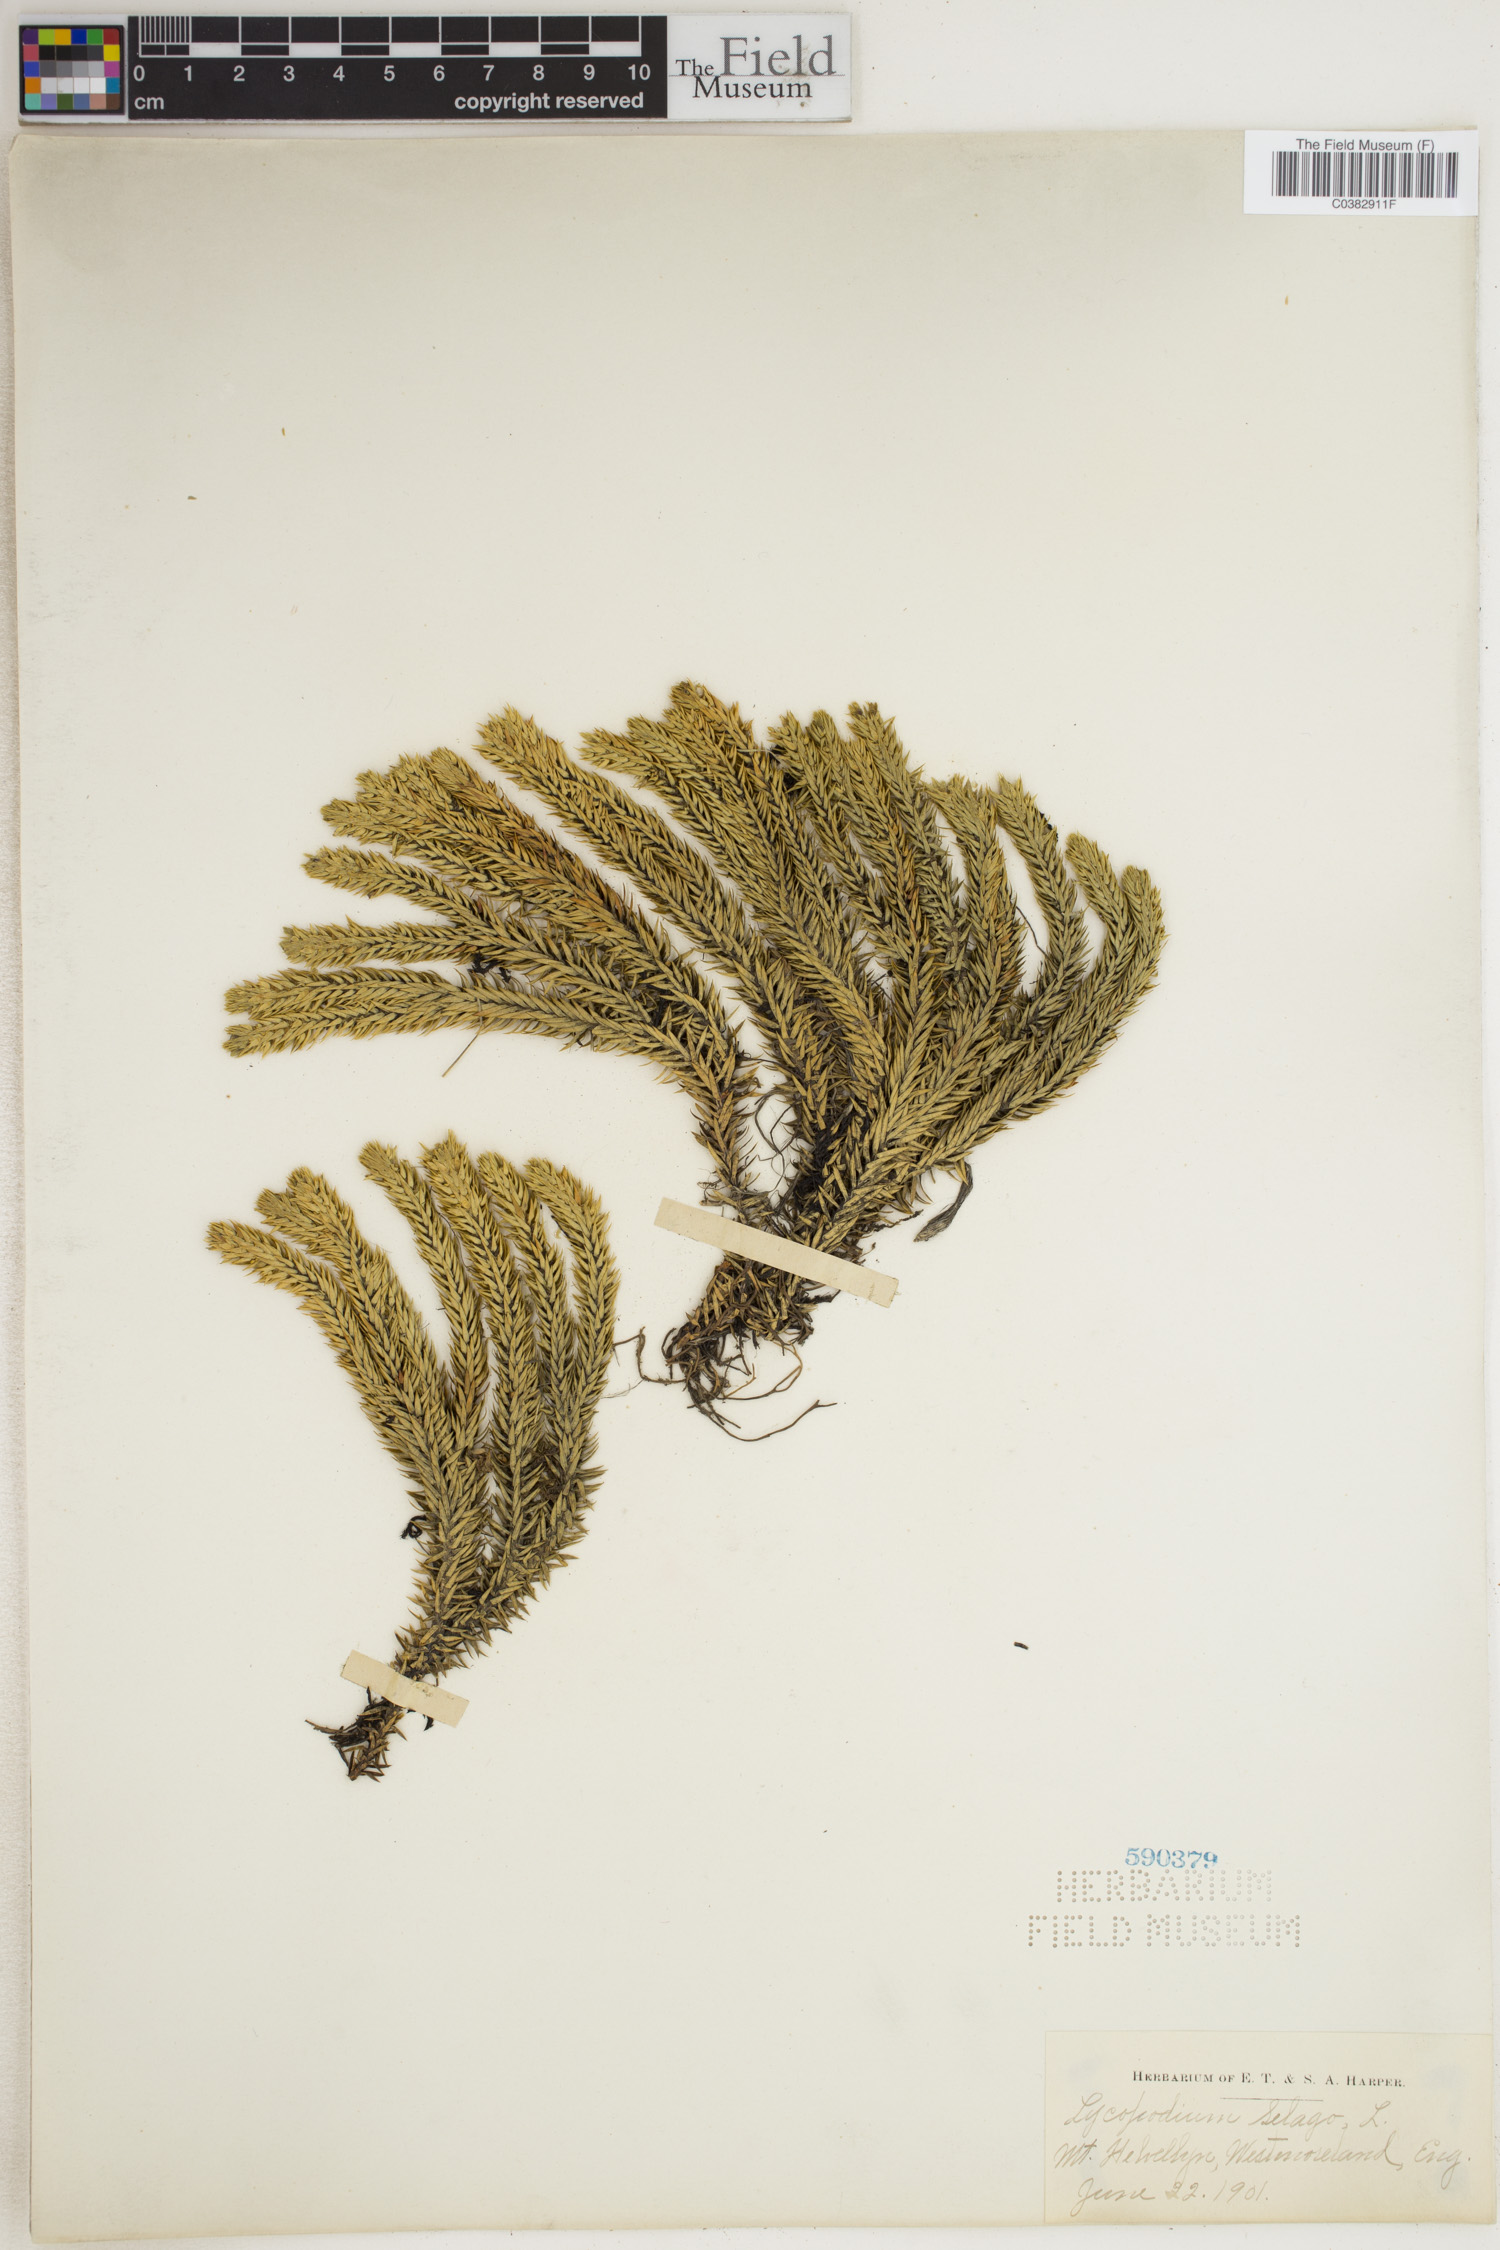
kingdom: Plantae
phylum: Tracheophyta
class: Lycopodiopsida
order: Lycopodiales
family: Lycopodiaceae
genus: Huperzia
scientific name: Huperzia selago
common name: Northern firmoss
